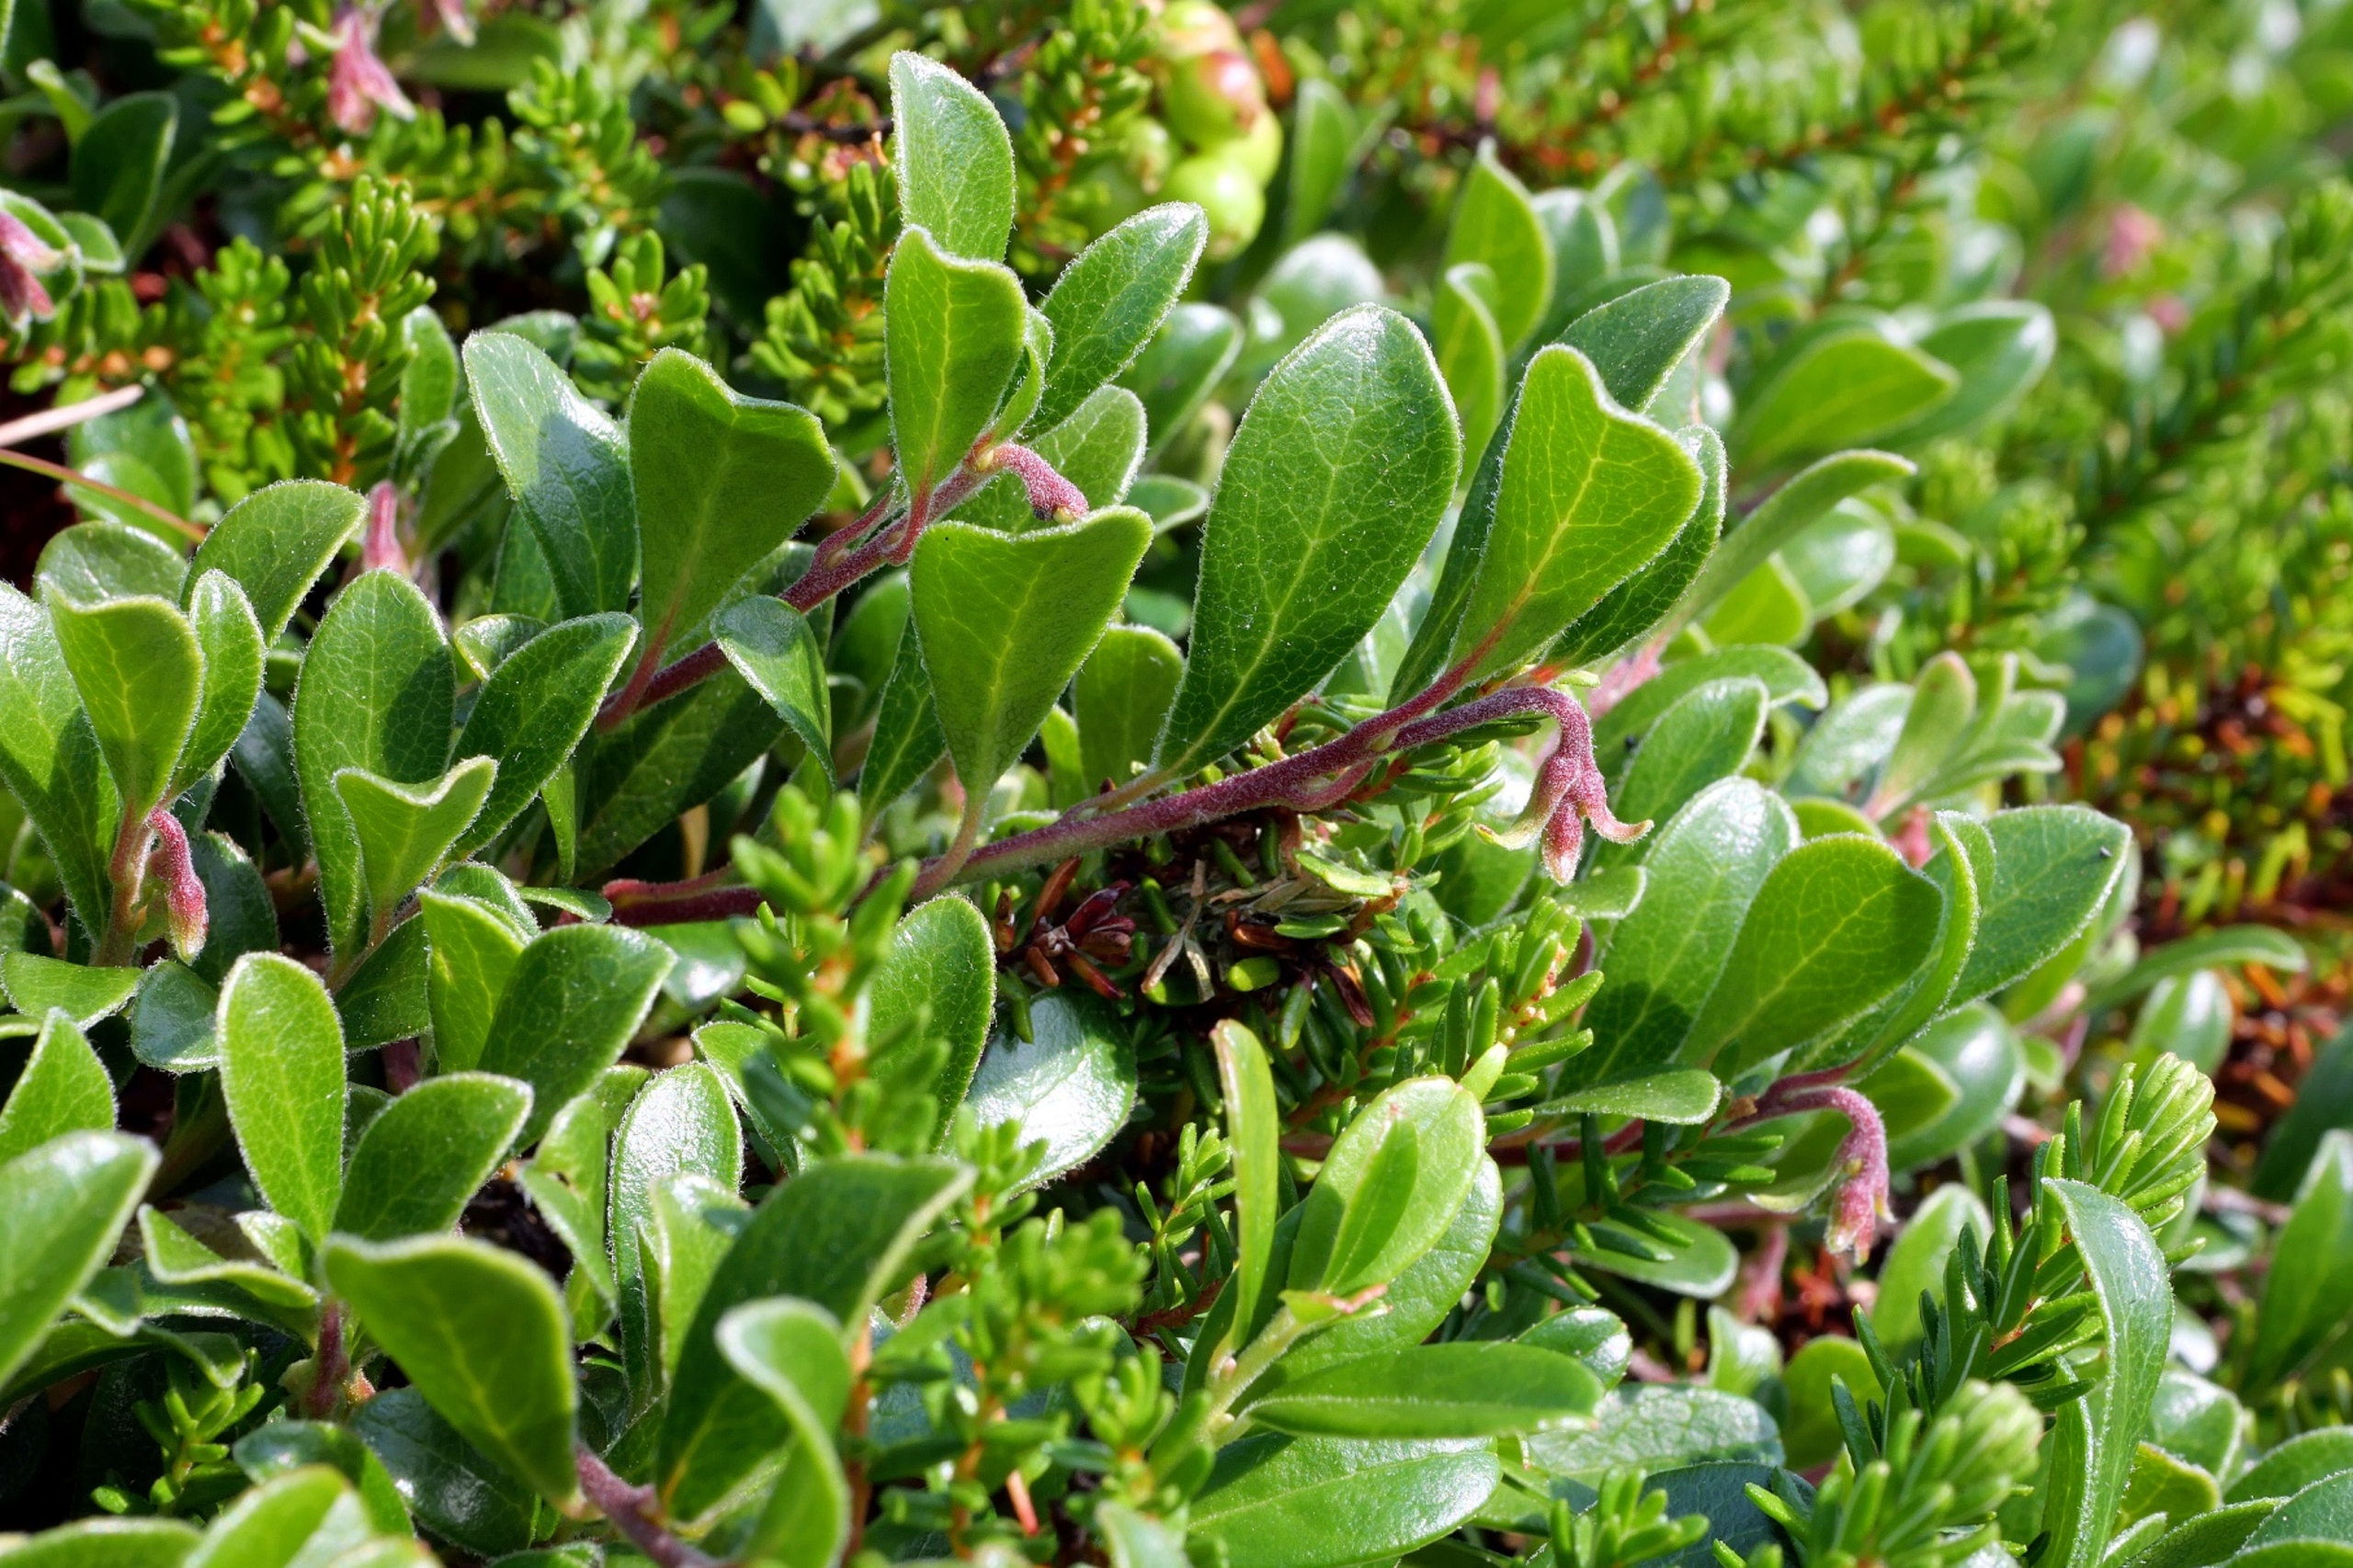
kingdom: Plantae
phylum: Tracheophyta
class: Magnoliopsida
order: Ericales
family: Ericaceae
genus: Arctostaphylos
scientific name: Arctostaphylos uva-ursi
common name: Hede-melbærris
